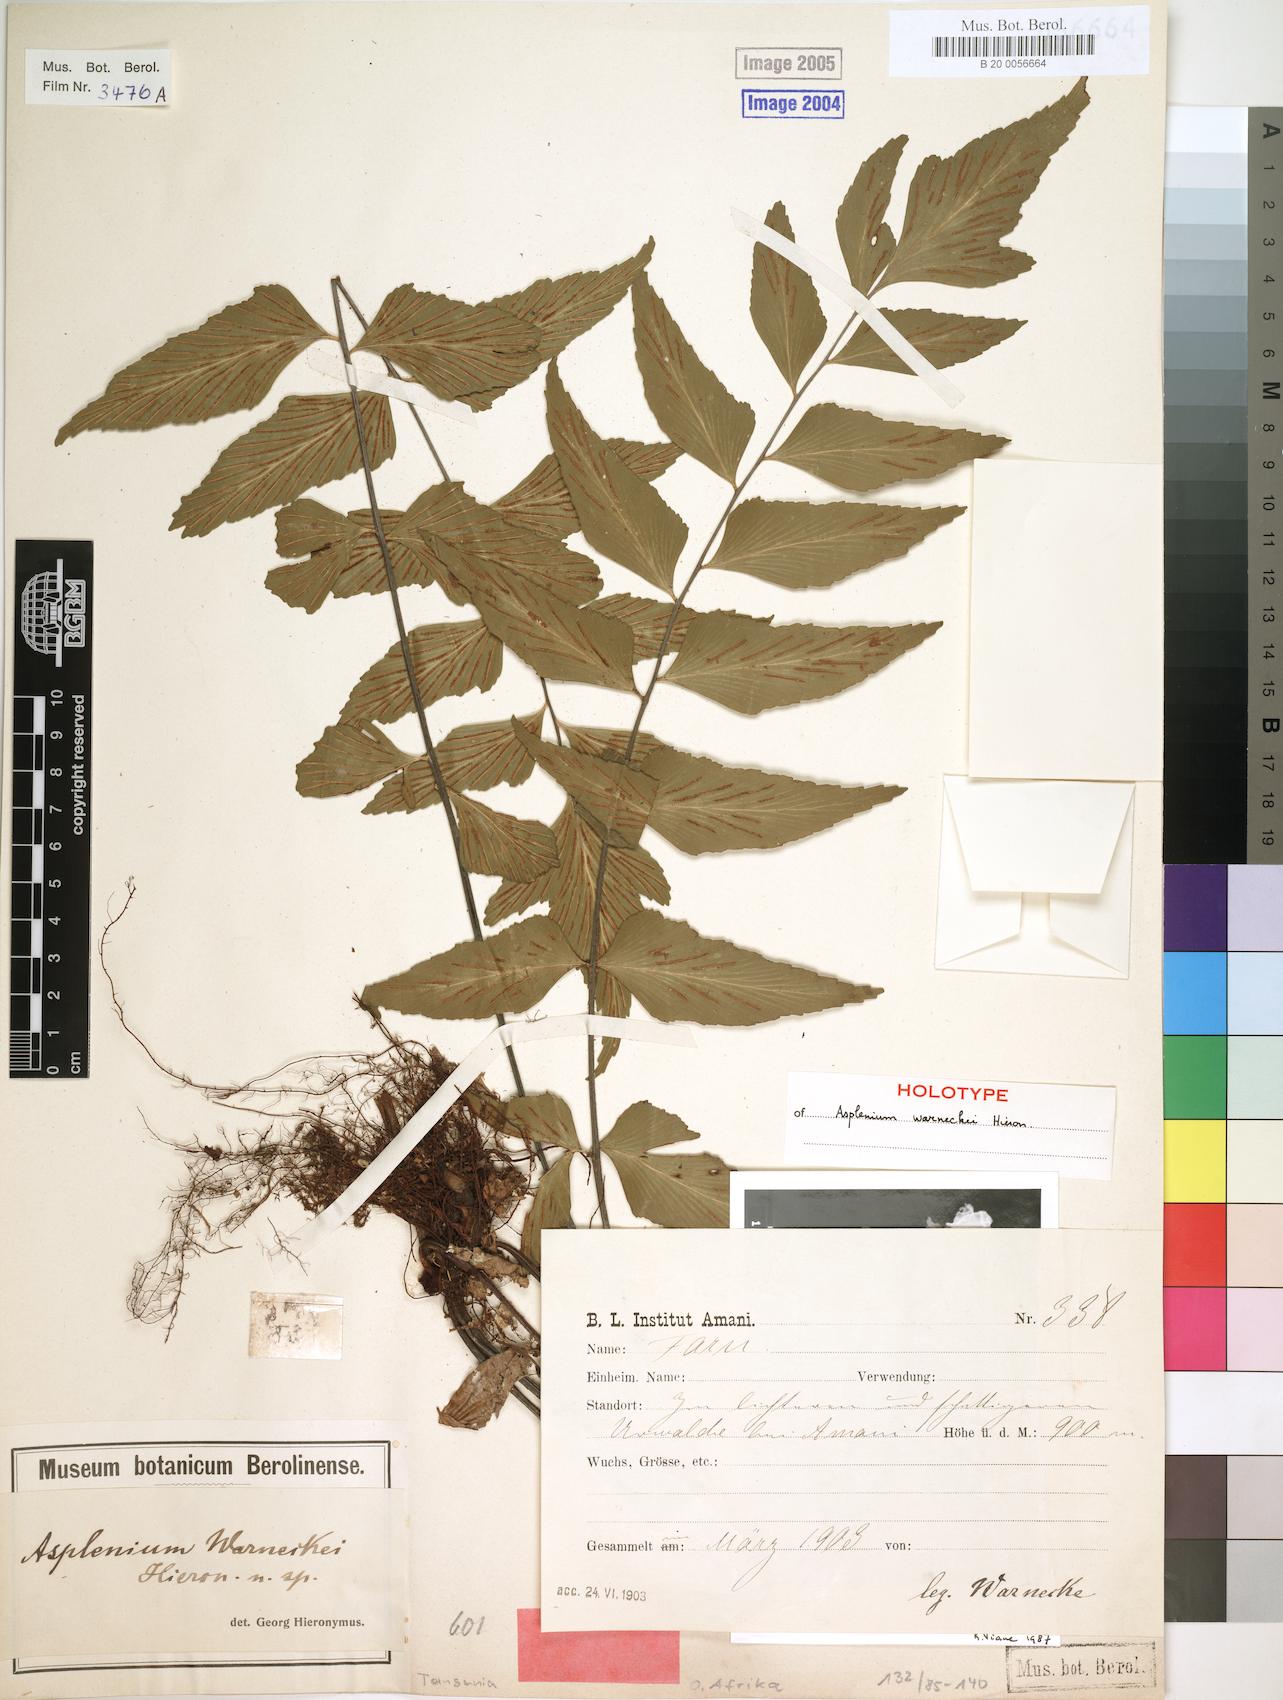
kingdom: Plantae
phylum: Tracheophyta
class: Polypodiopsida
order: Polypodiales
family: Aspleniaceae
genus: Asplenium
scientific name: Asplenium warneckei
